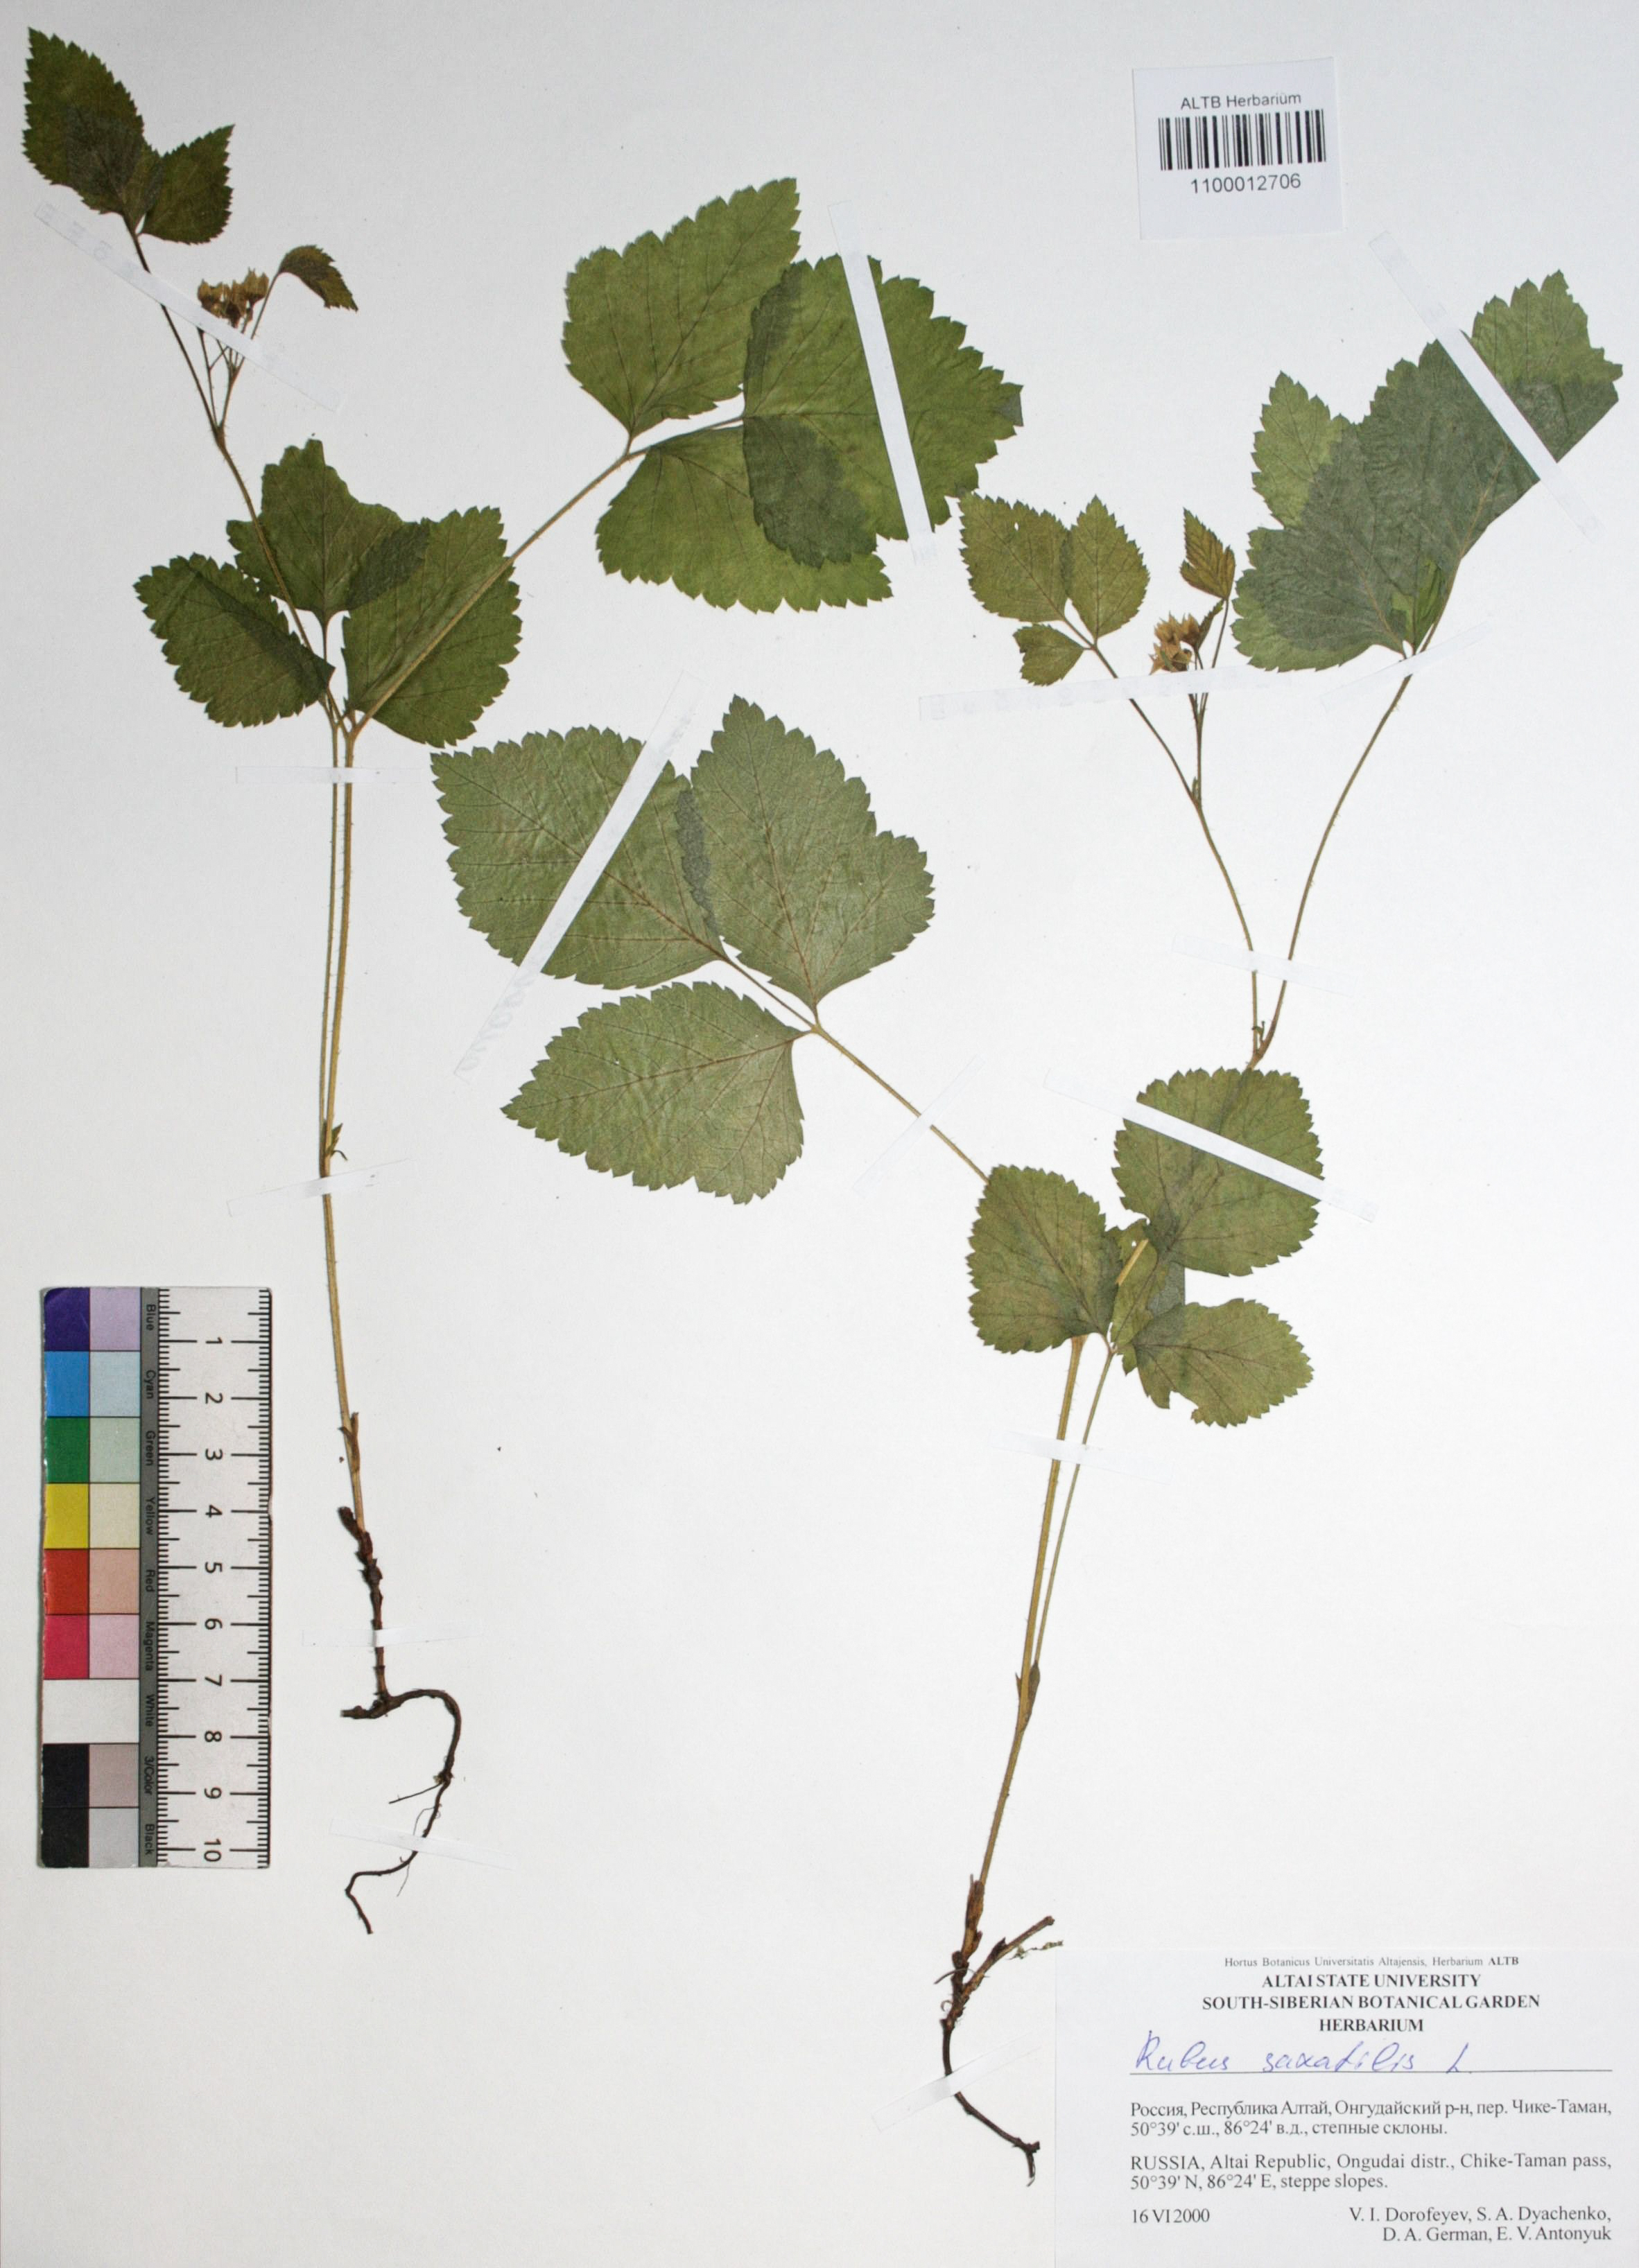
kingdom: Plantae
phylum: Tracheophyta
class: Magnoliopsida
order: Rosales
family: Rosaceae
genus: Rubus
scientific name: Rubus saxatilis
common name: Stone bramble
